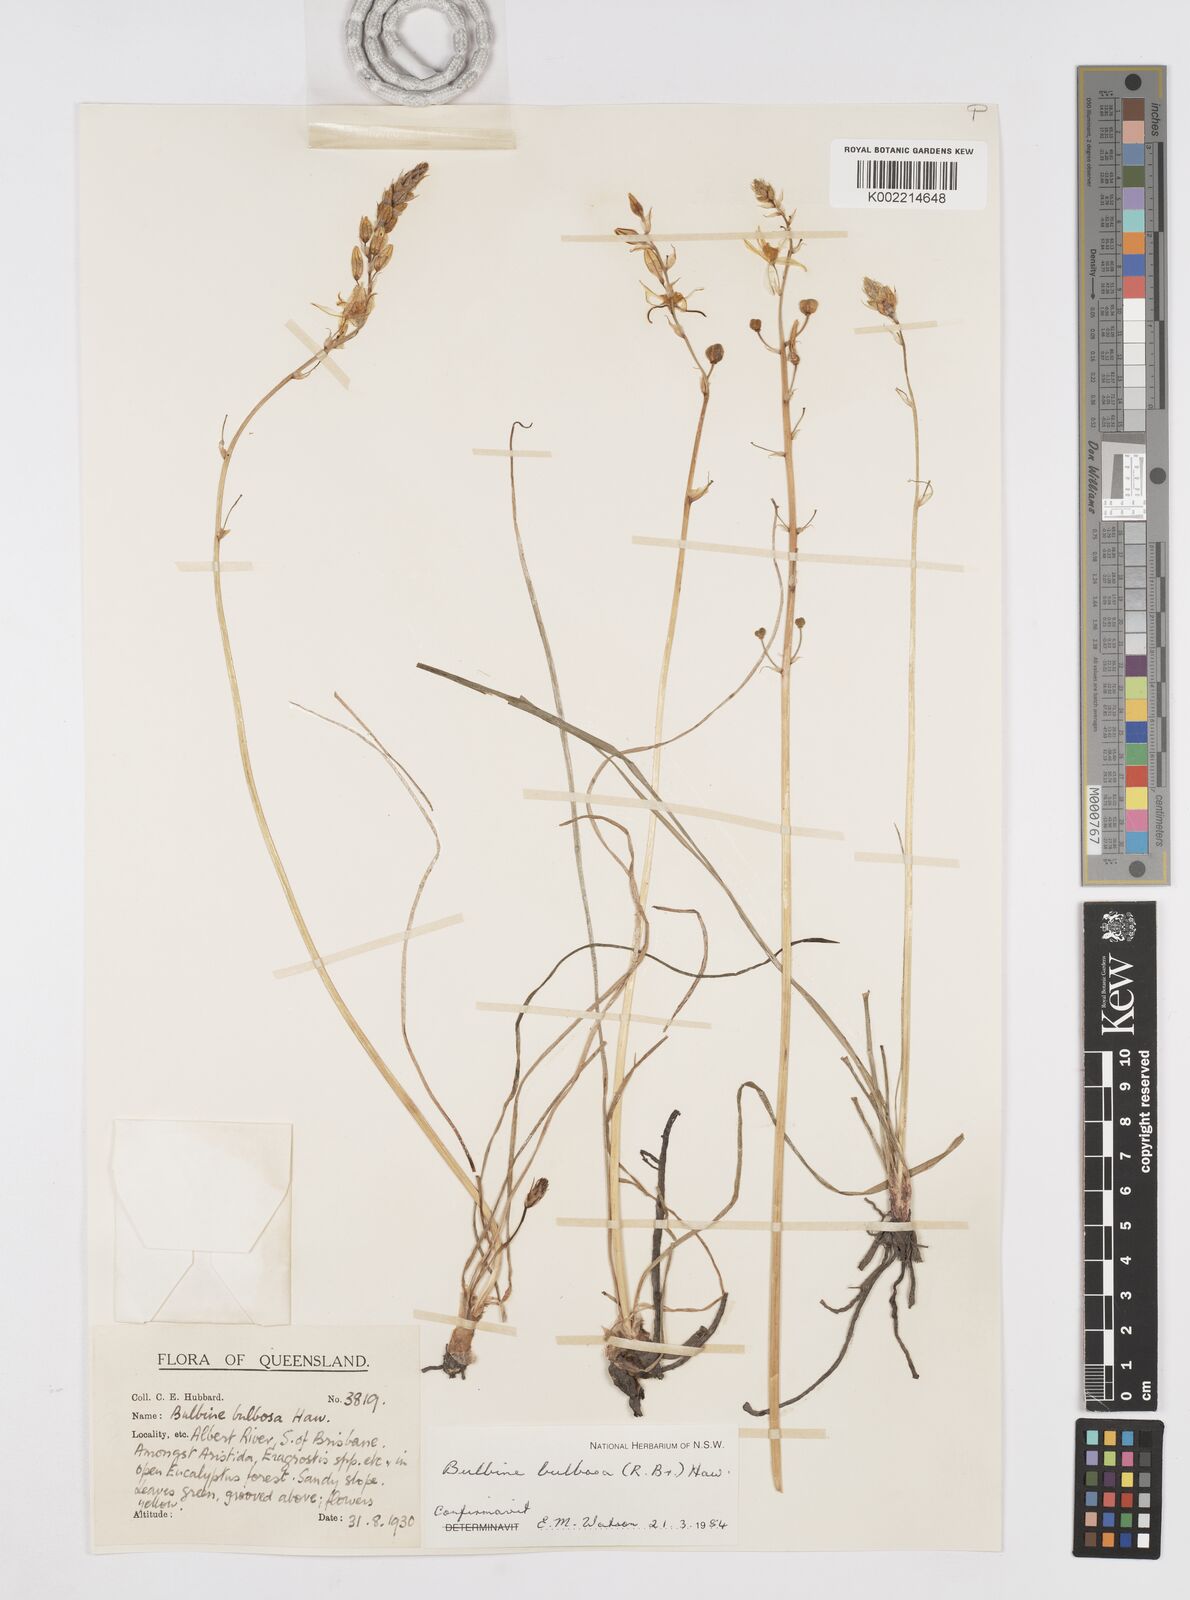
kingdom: Plantae
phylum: Tracheophyta
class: Liliopsida
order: Asparagales
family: Asphodelaceae
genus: Bulbine
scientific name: Bulbine bulbosa
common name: Golden-lily
